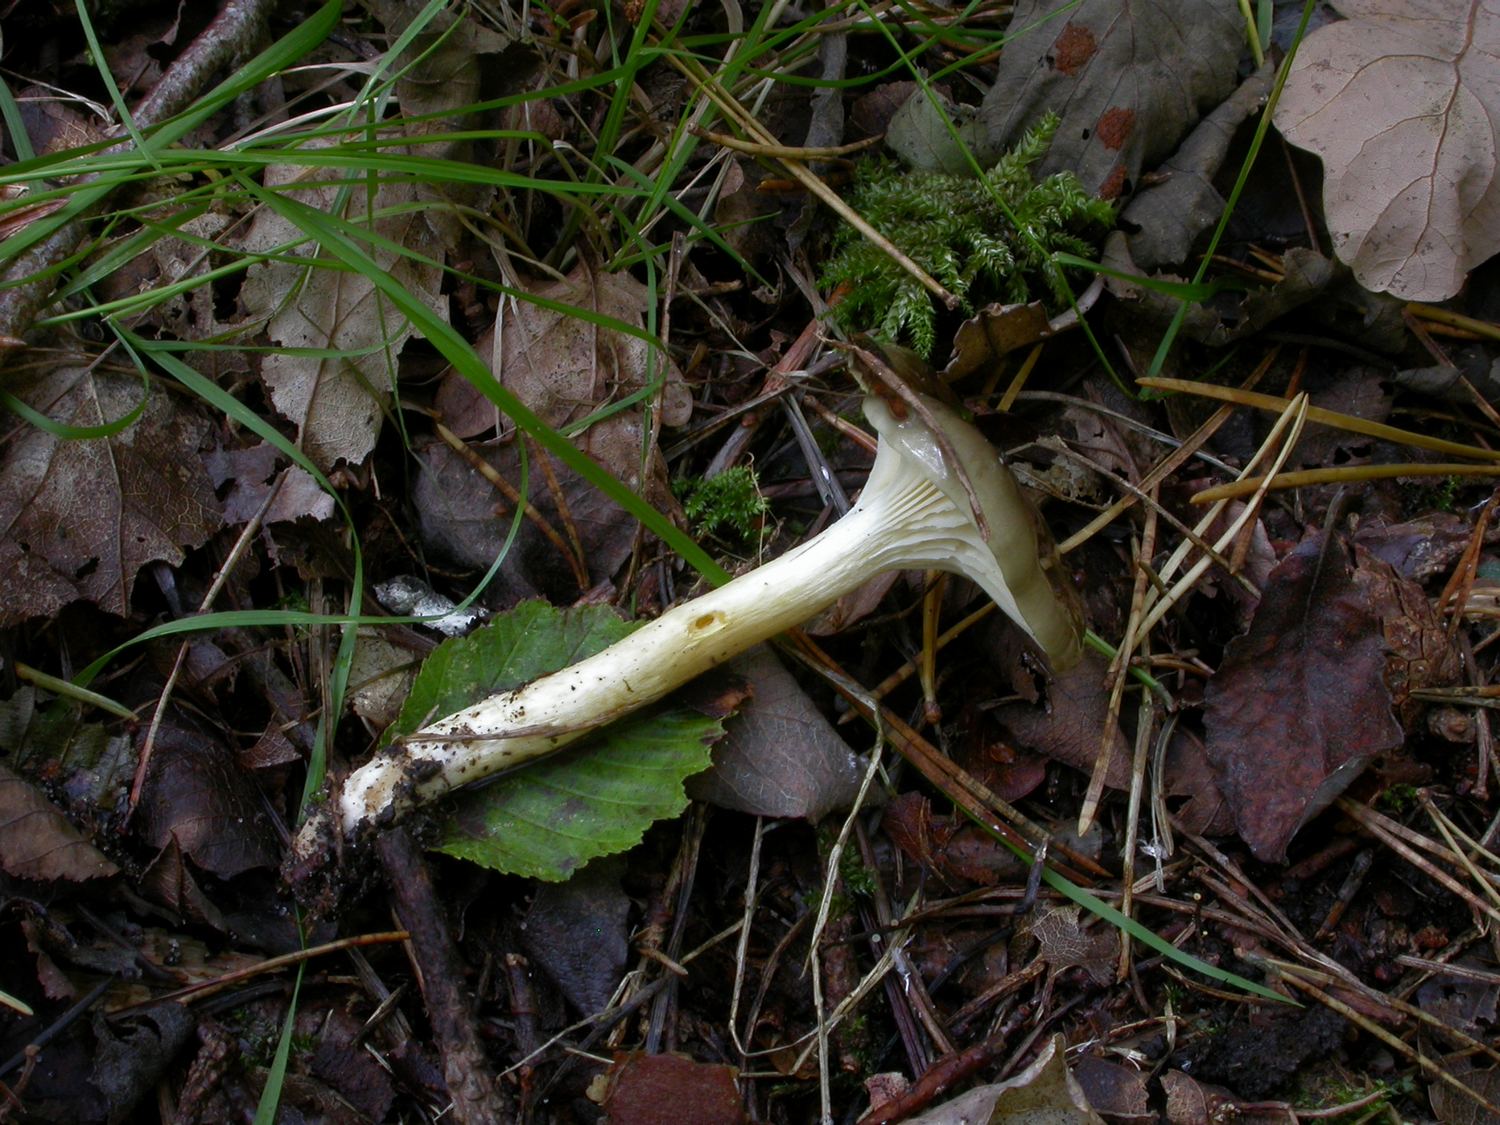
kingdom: Fungi
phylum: Basidiomycota
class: Agaricomycetes
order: Agaricales
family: Hygrophoraceae
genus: Hygrophorus
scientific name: Hygrophorus hypothejus
